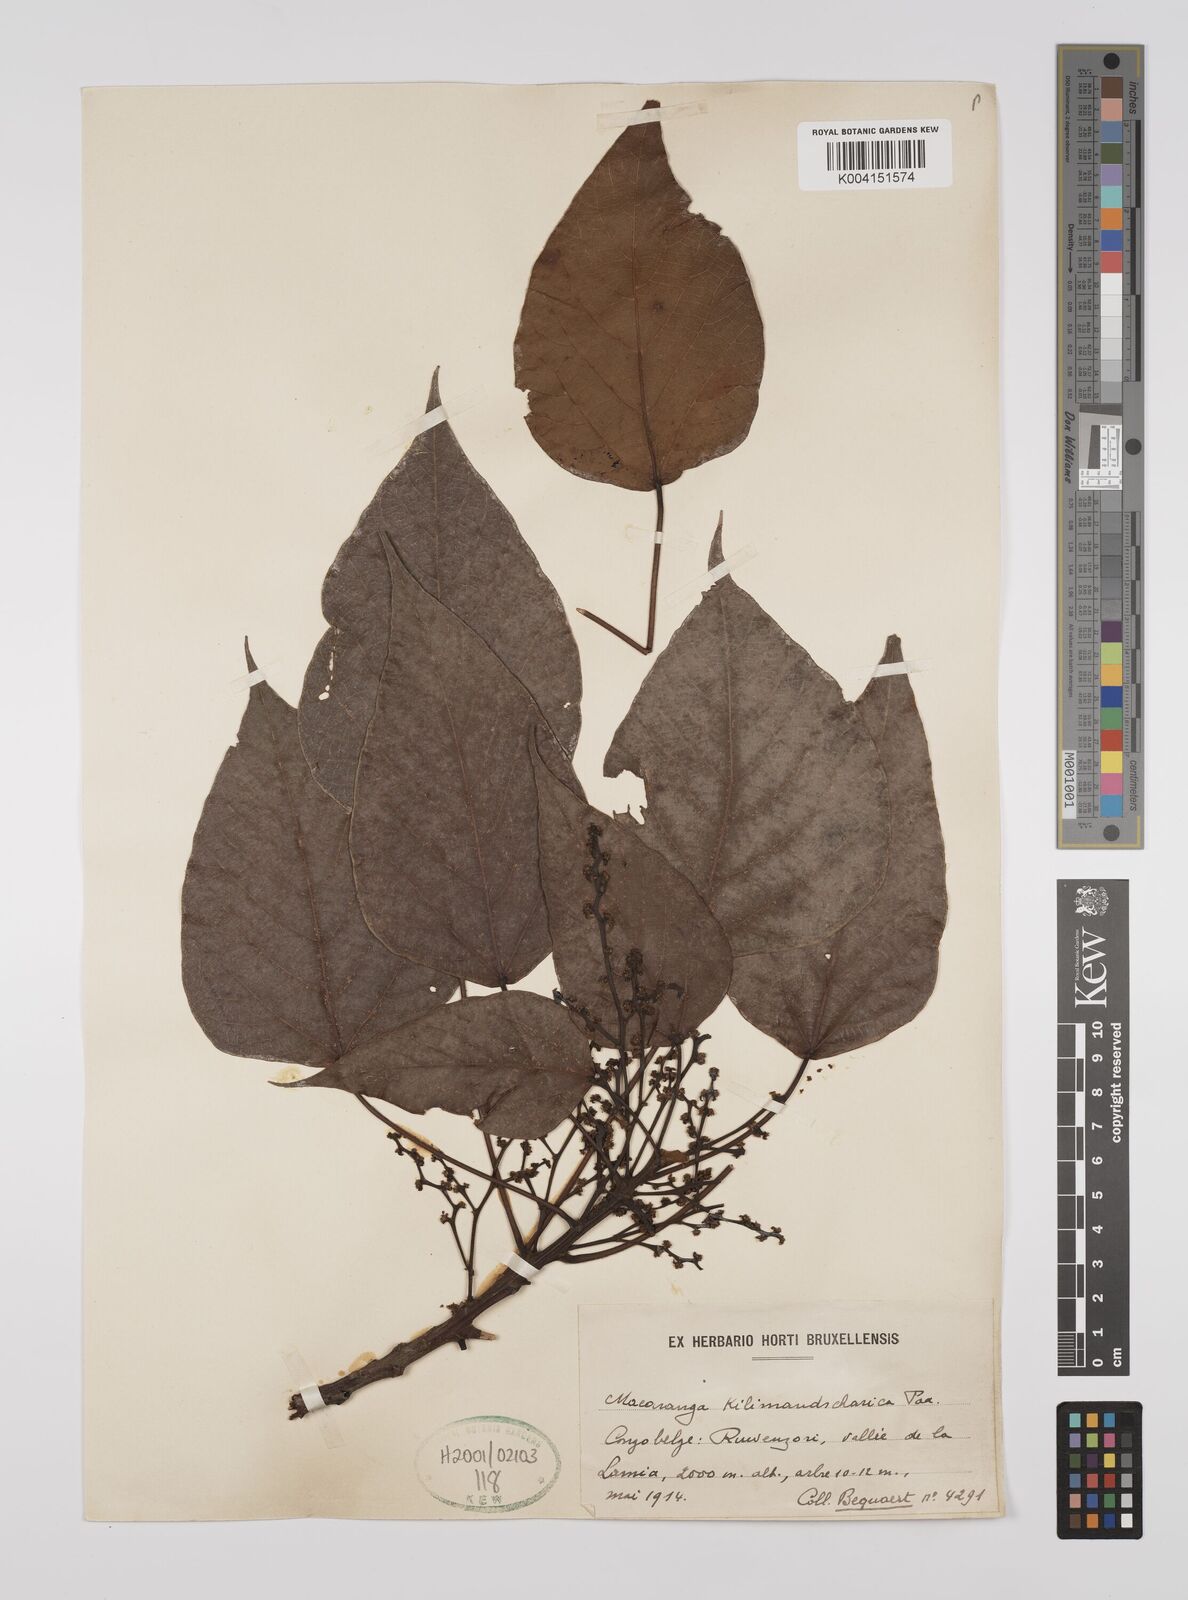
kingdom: Plantae
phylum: Tracheophyta
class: Magnoliopsida
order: Malpighiales
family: Euphorbiaceae
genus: Macaranga
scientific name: Macaranga kilimandscharica
